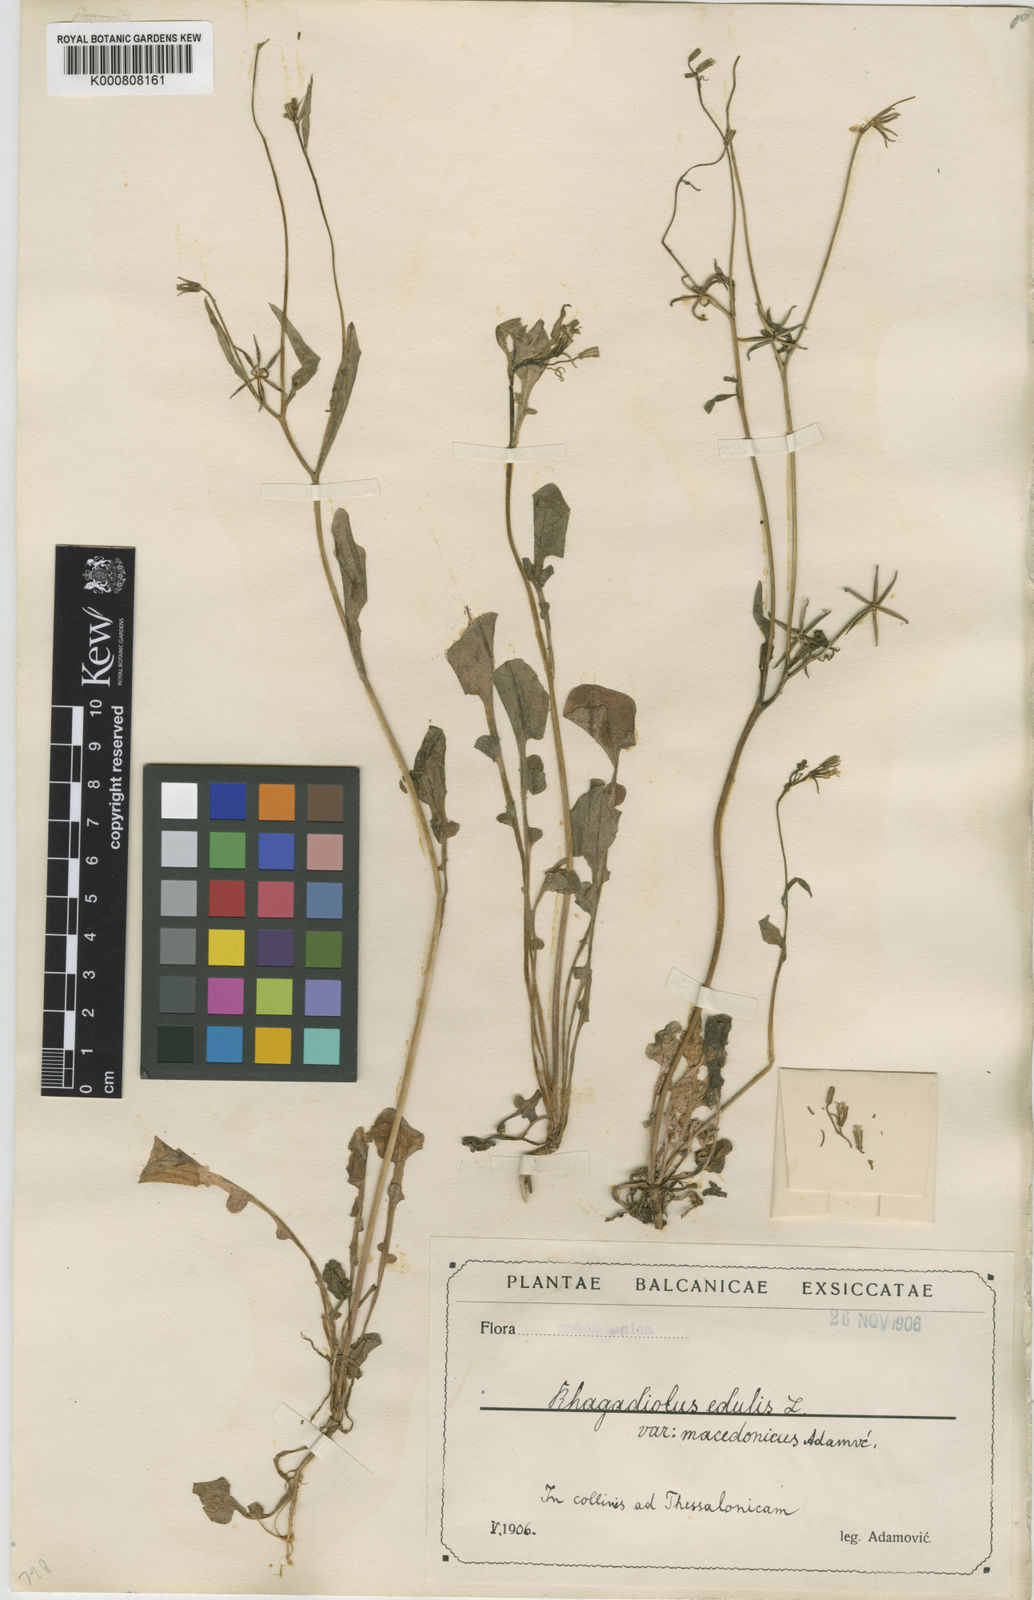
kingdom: Plantae
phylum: Tracheophyta
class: Magnoliopsida
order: Asterales
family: Asteraceae
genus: Rhagadiolus
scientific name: Rhagadiolus edulis
